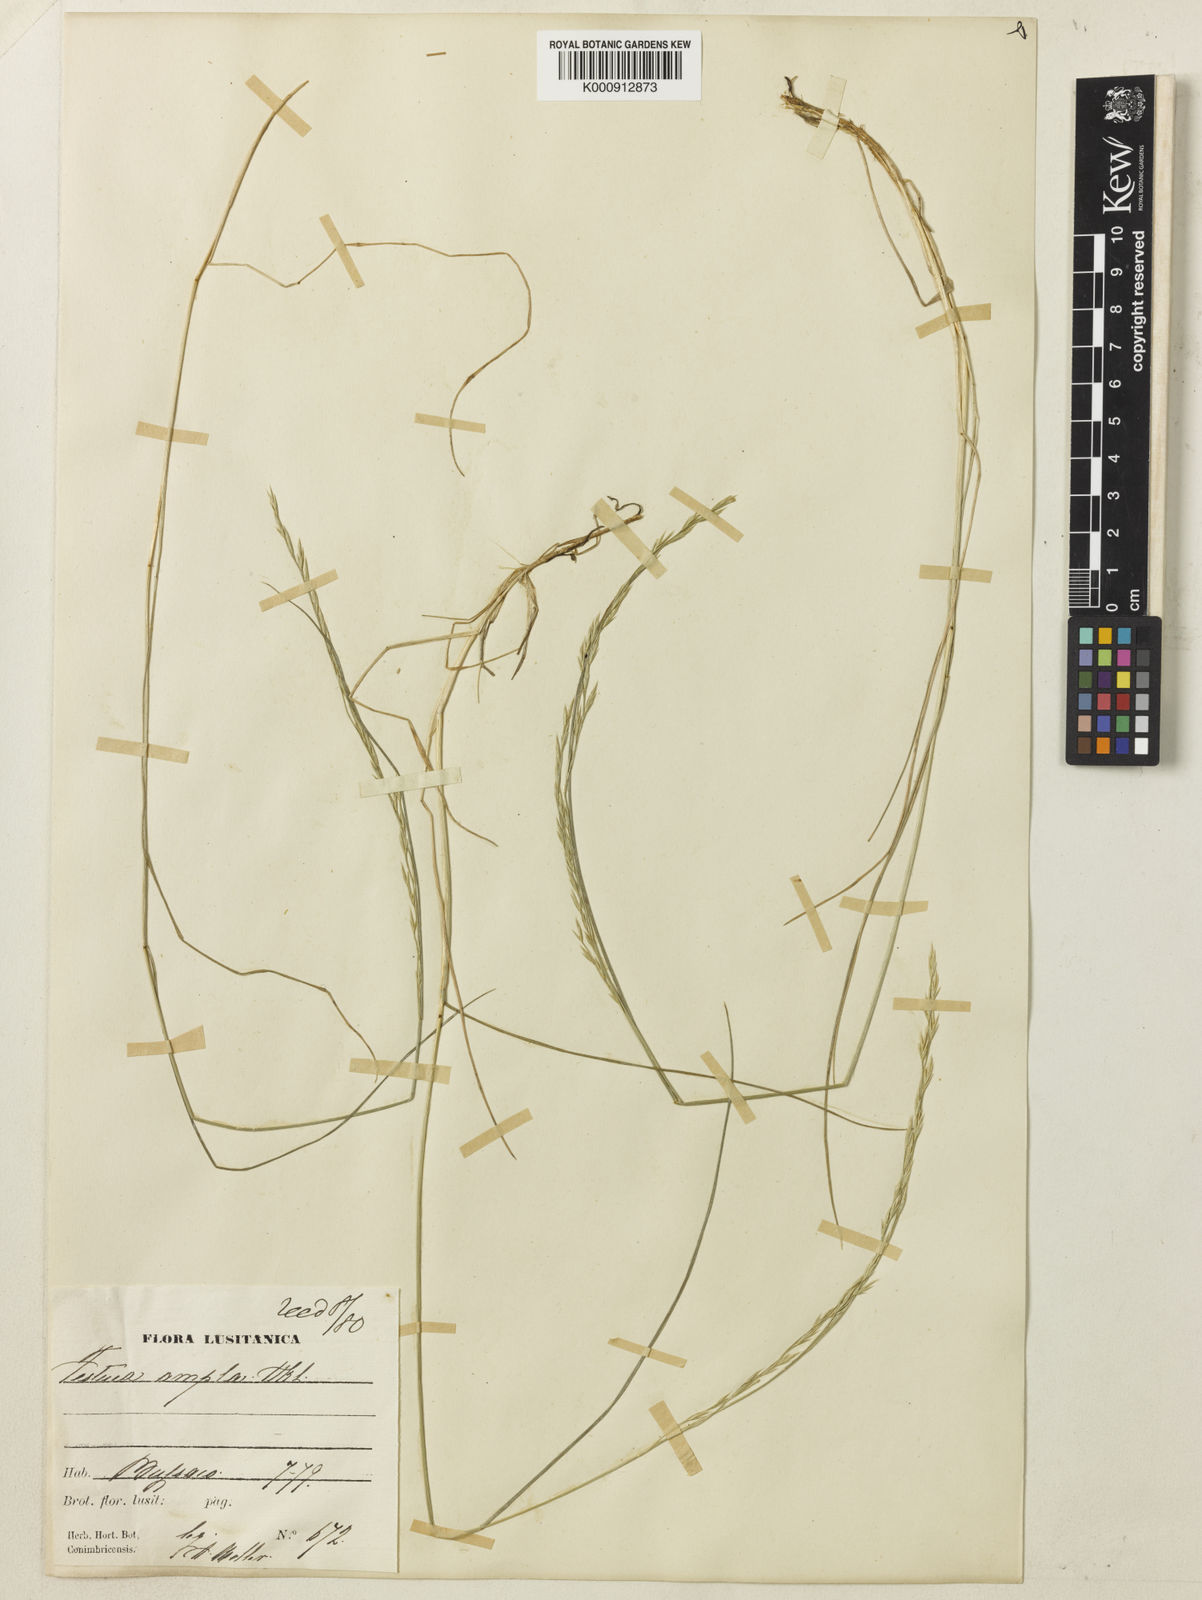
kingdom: Plantae
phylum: Tracheophyta
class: Liliopsida
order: Poales
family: Poaceae
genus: Festuca
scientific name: Festuca ampla
